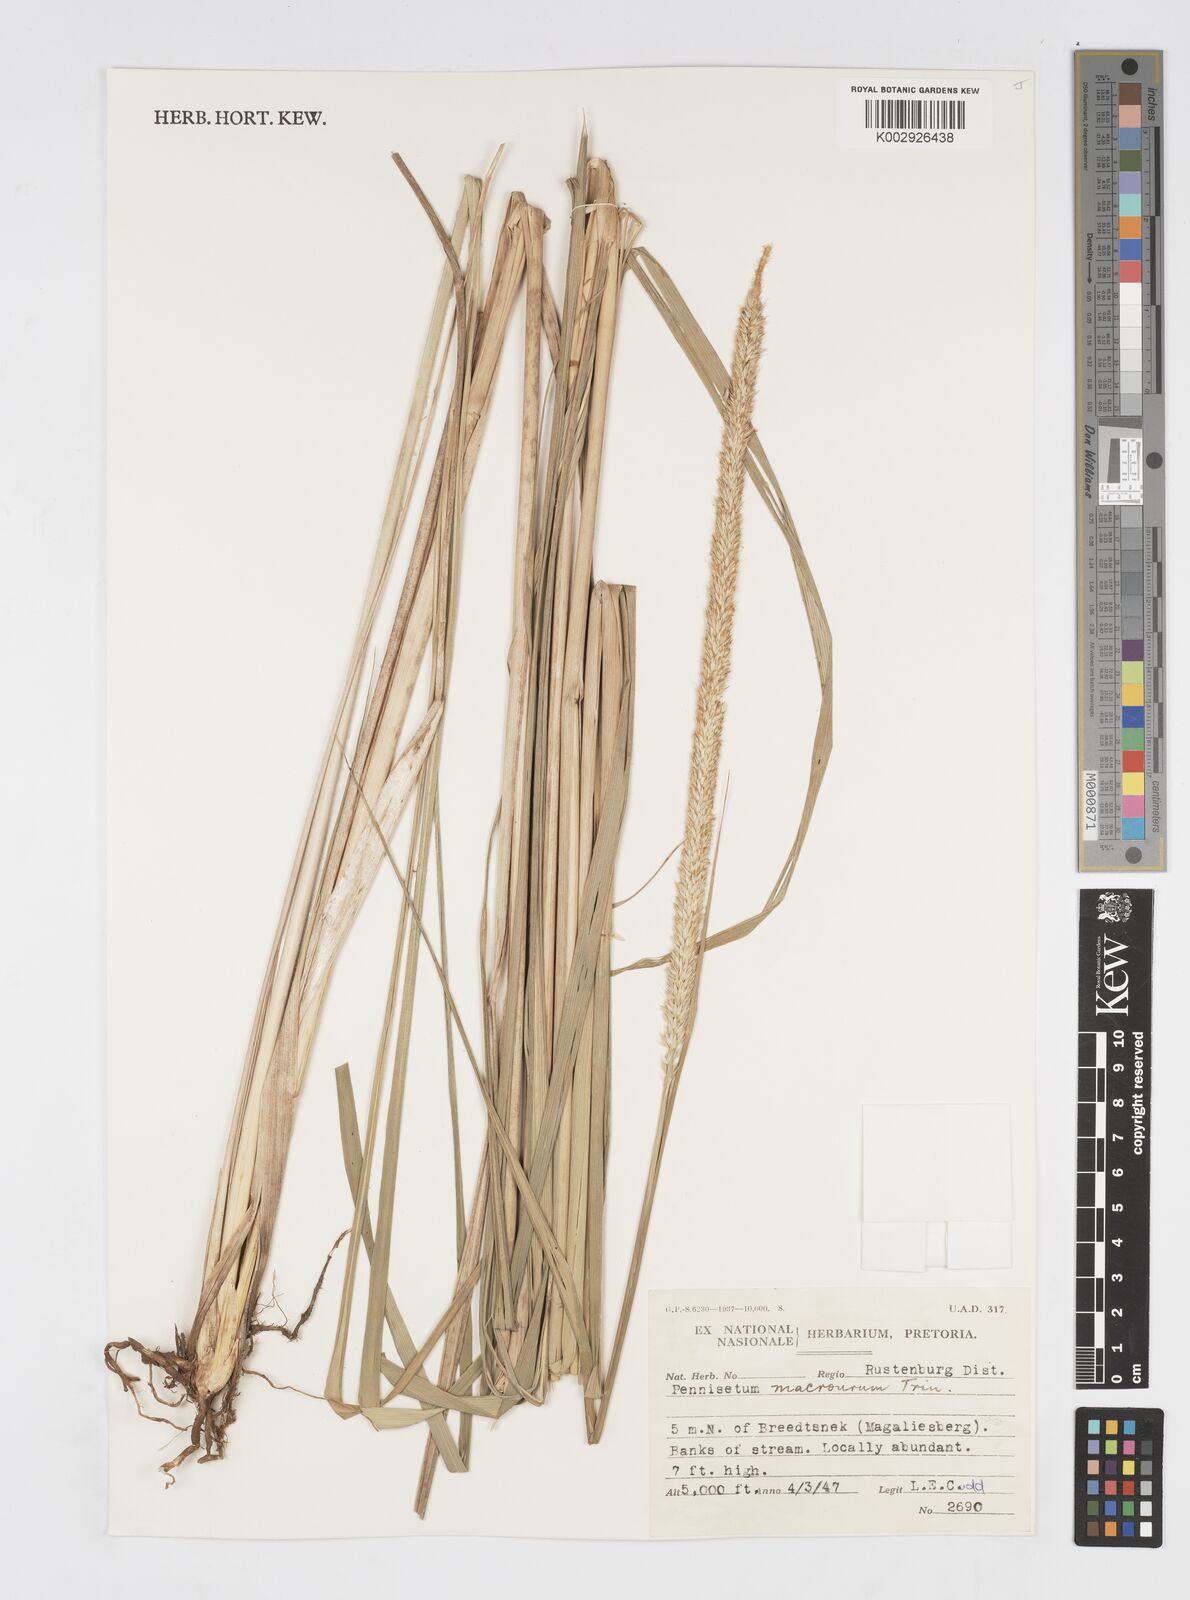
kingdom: Plantae
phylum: Tracheophyta
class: Liliopsida
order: Poales
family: Poaceae
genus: Cenchrus
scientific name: Cenchrus caudatus
